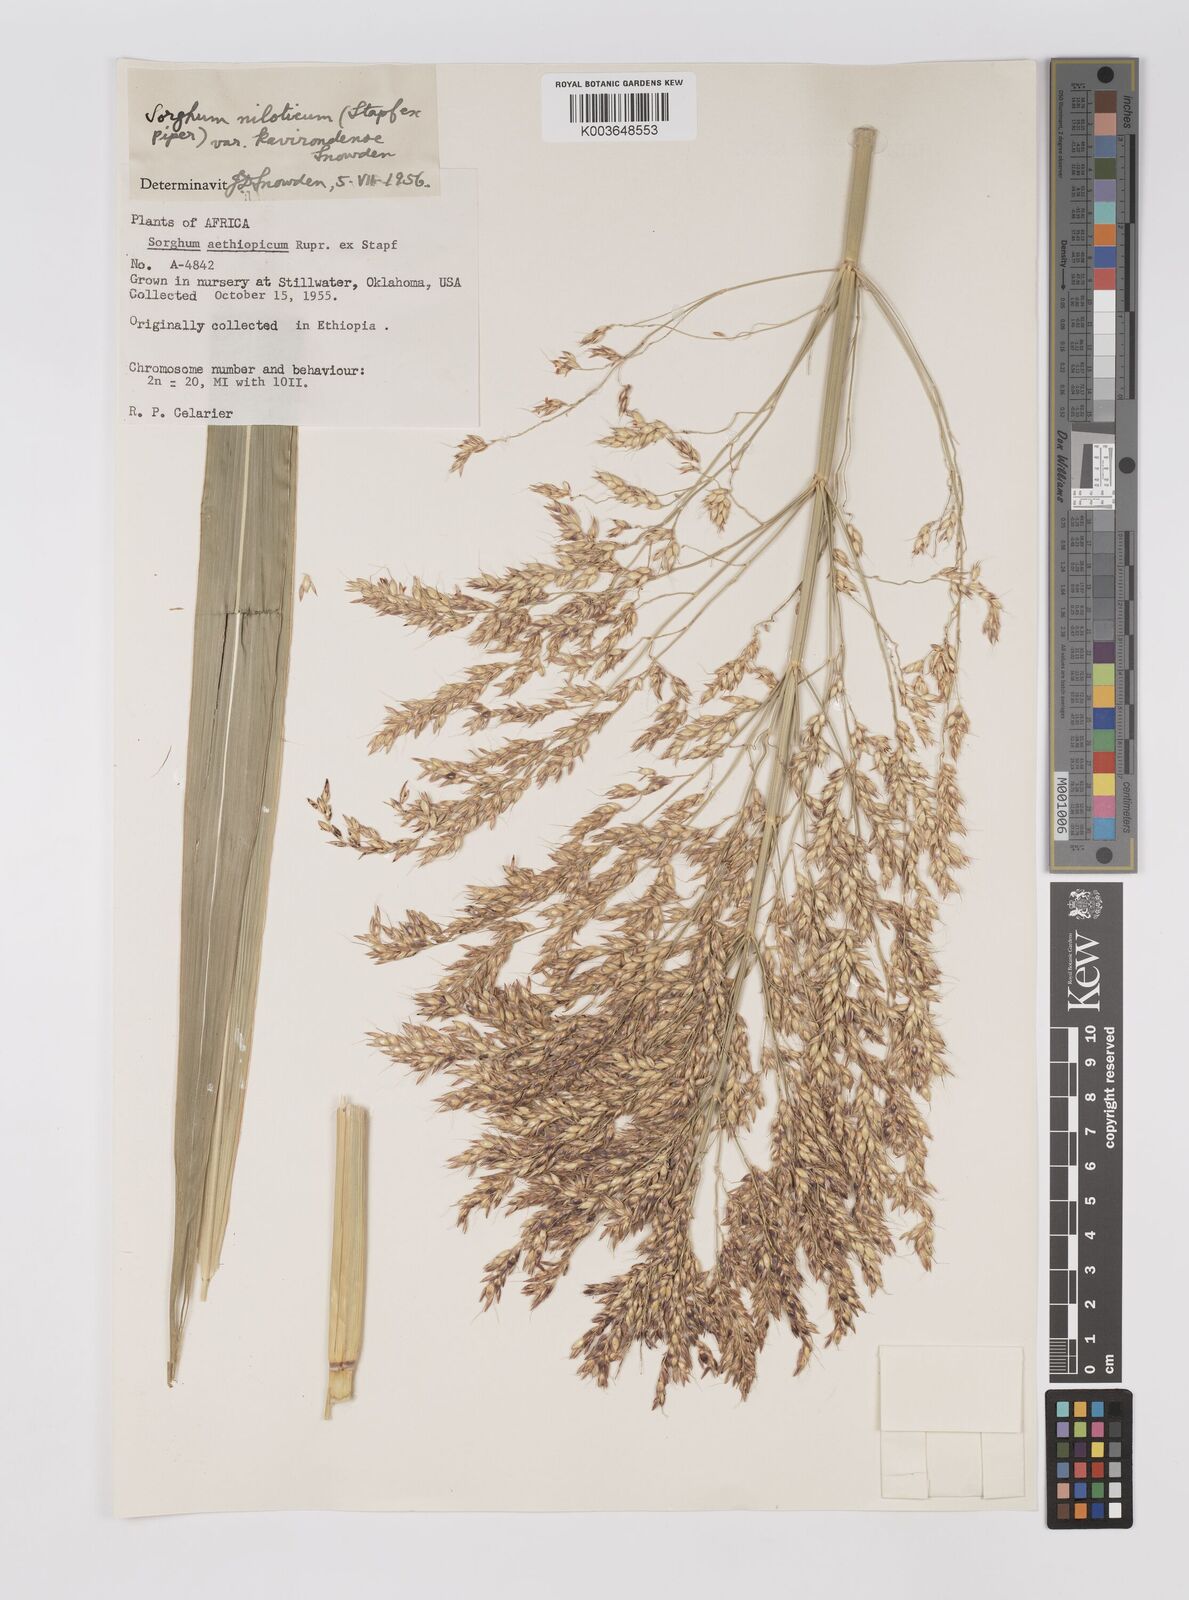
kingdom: Plantae
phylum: Tracheophyta
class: Liliopsida
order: Poales
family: Poaceae
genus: Sorghum
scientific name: Sorghum drummondii
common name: Sudangrass
